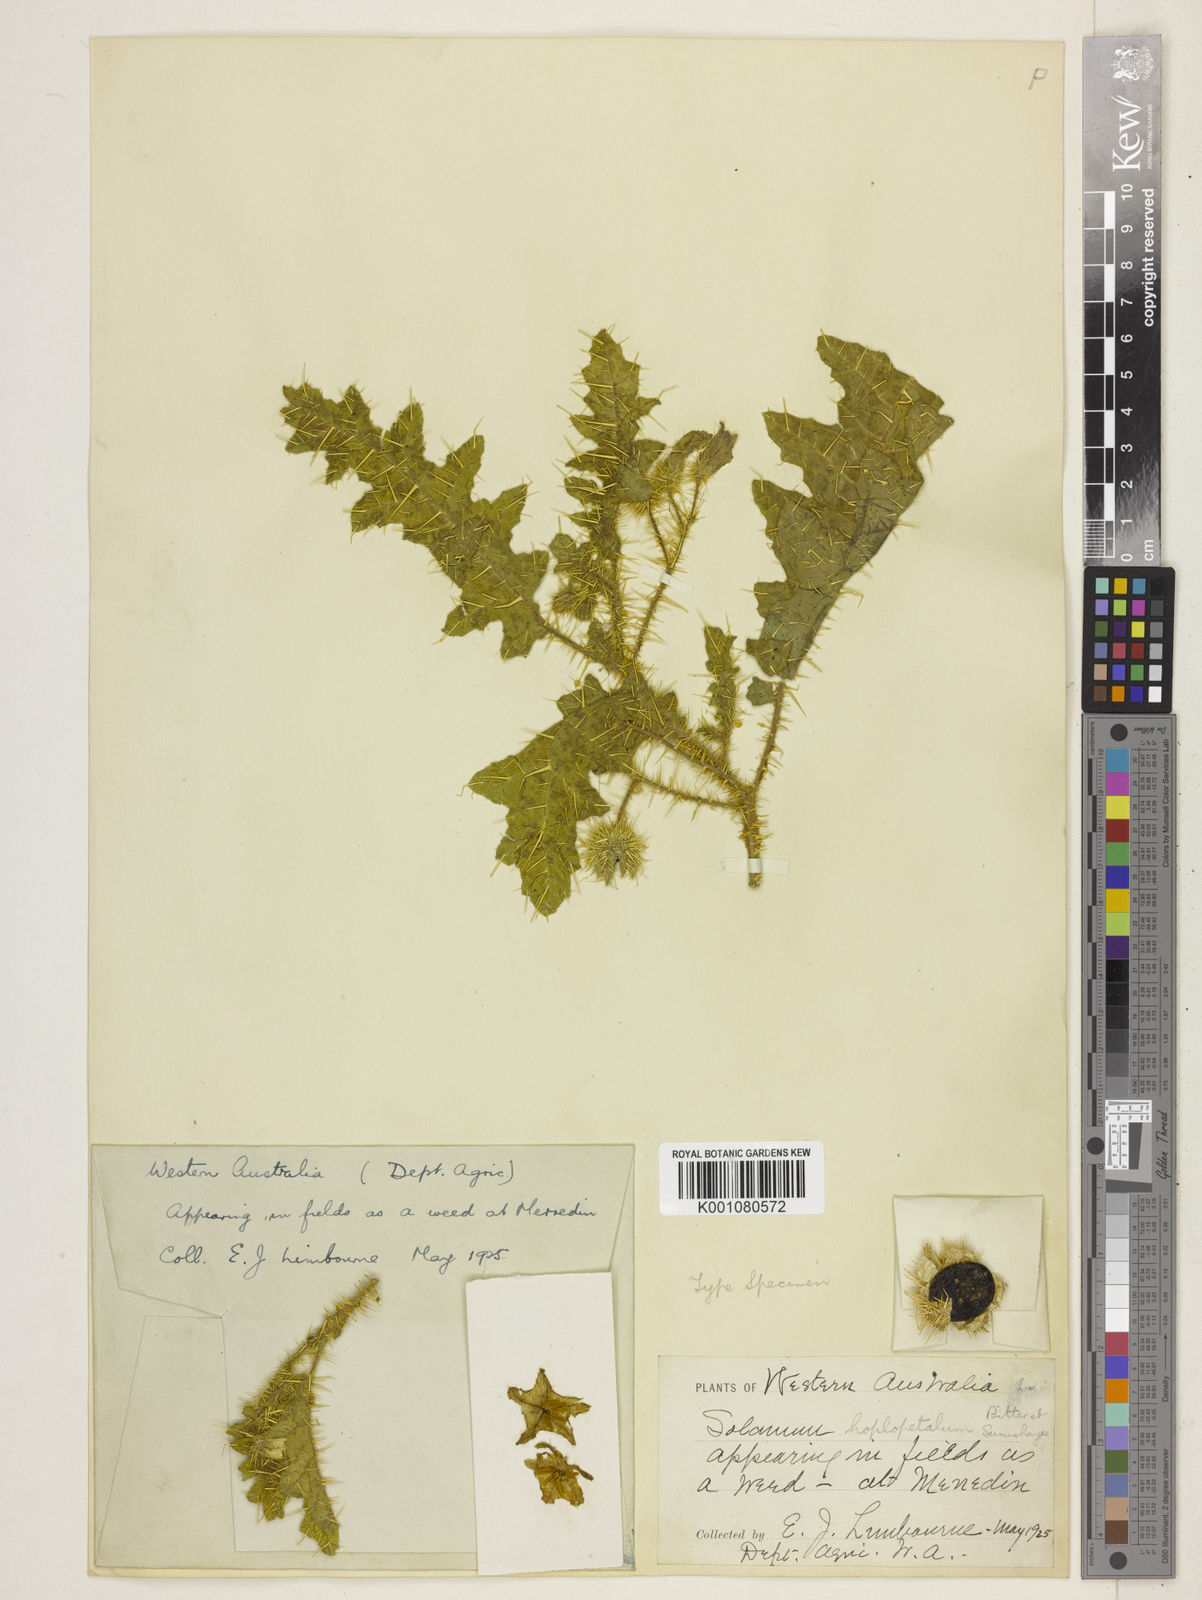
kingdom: Plantae
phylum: Tracheophyta
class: Magnoliopsida
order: Solanales
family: Solanaceae
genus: Solanum
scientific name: Solanum hoplopetalum
